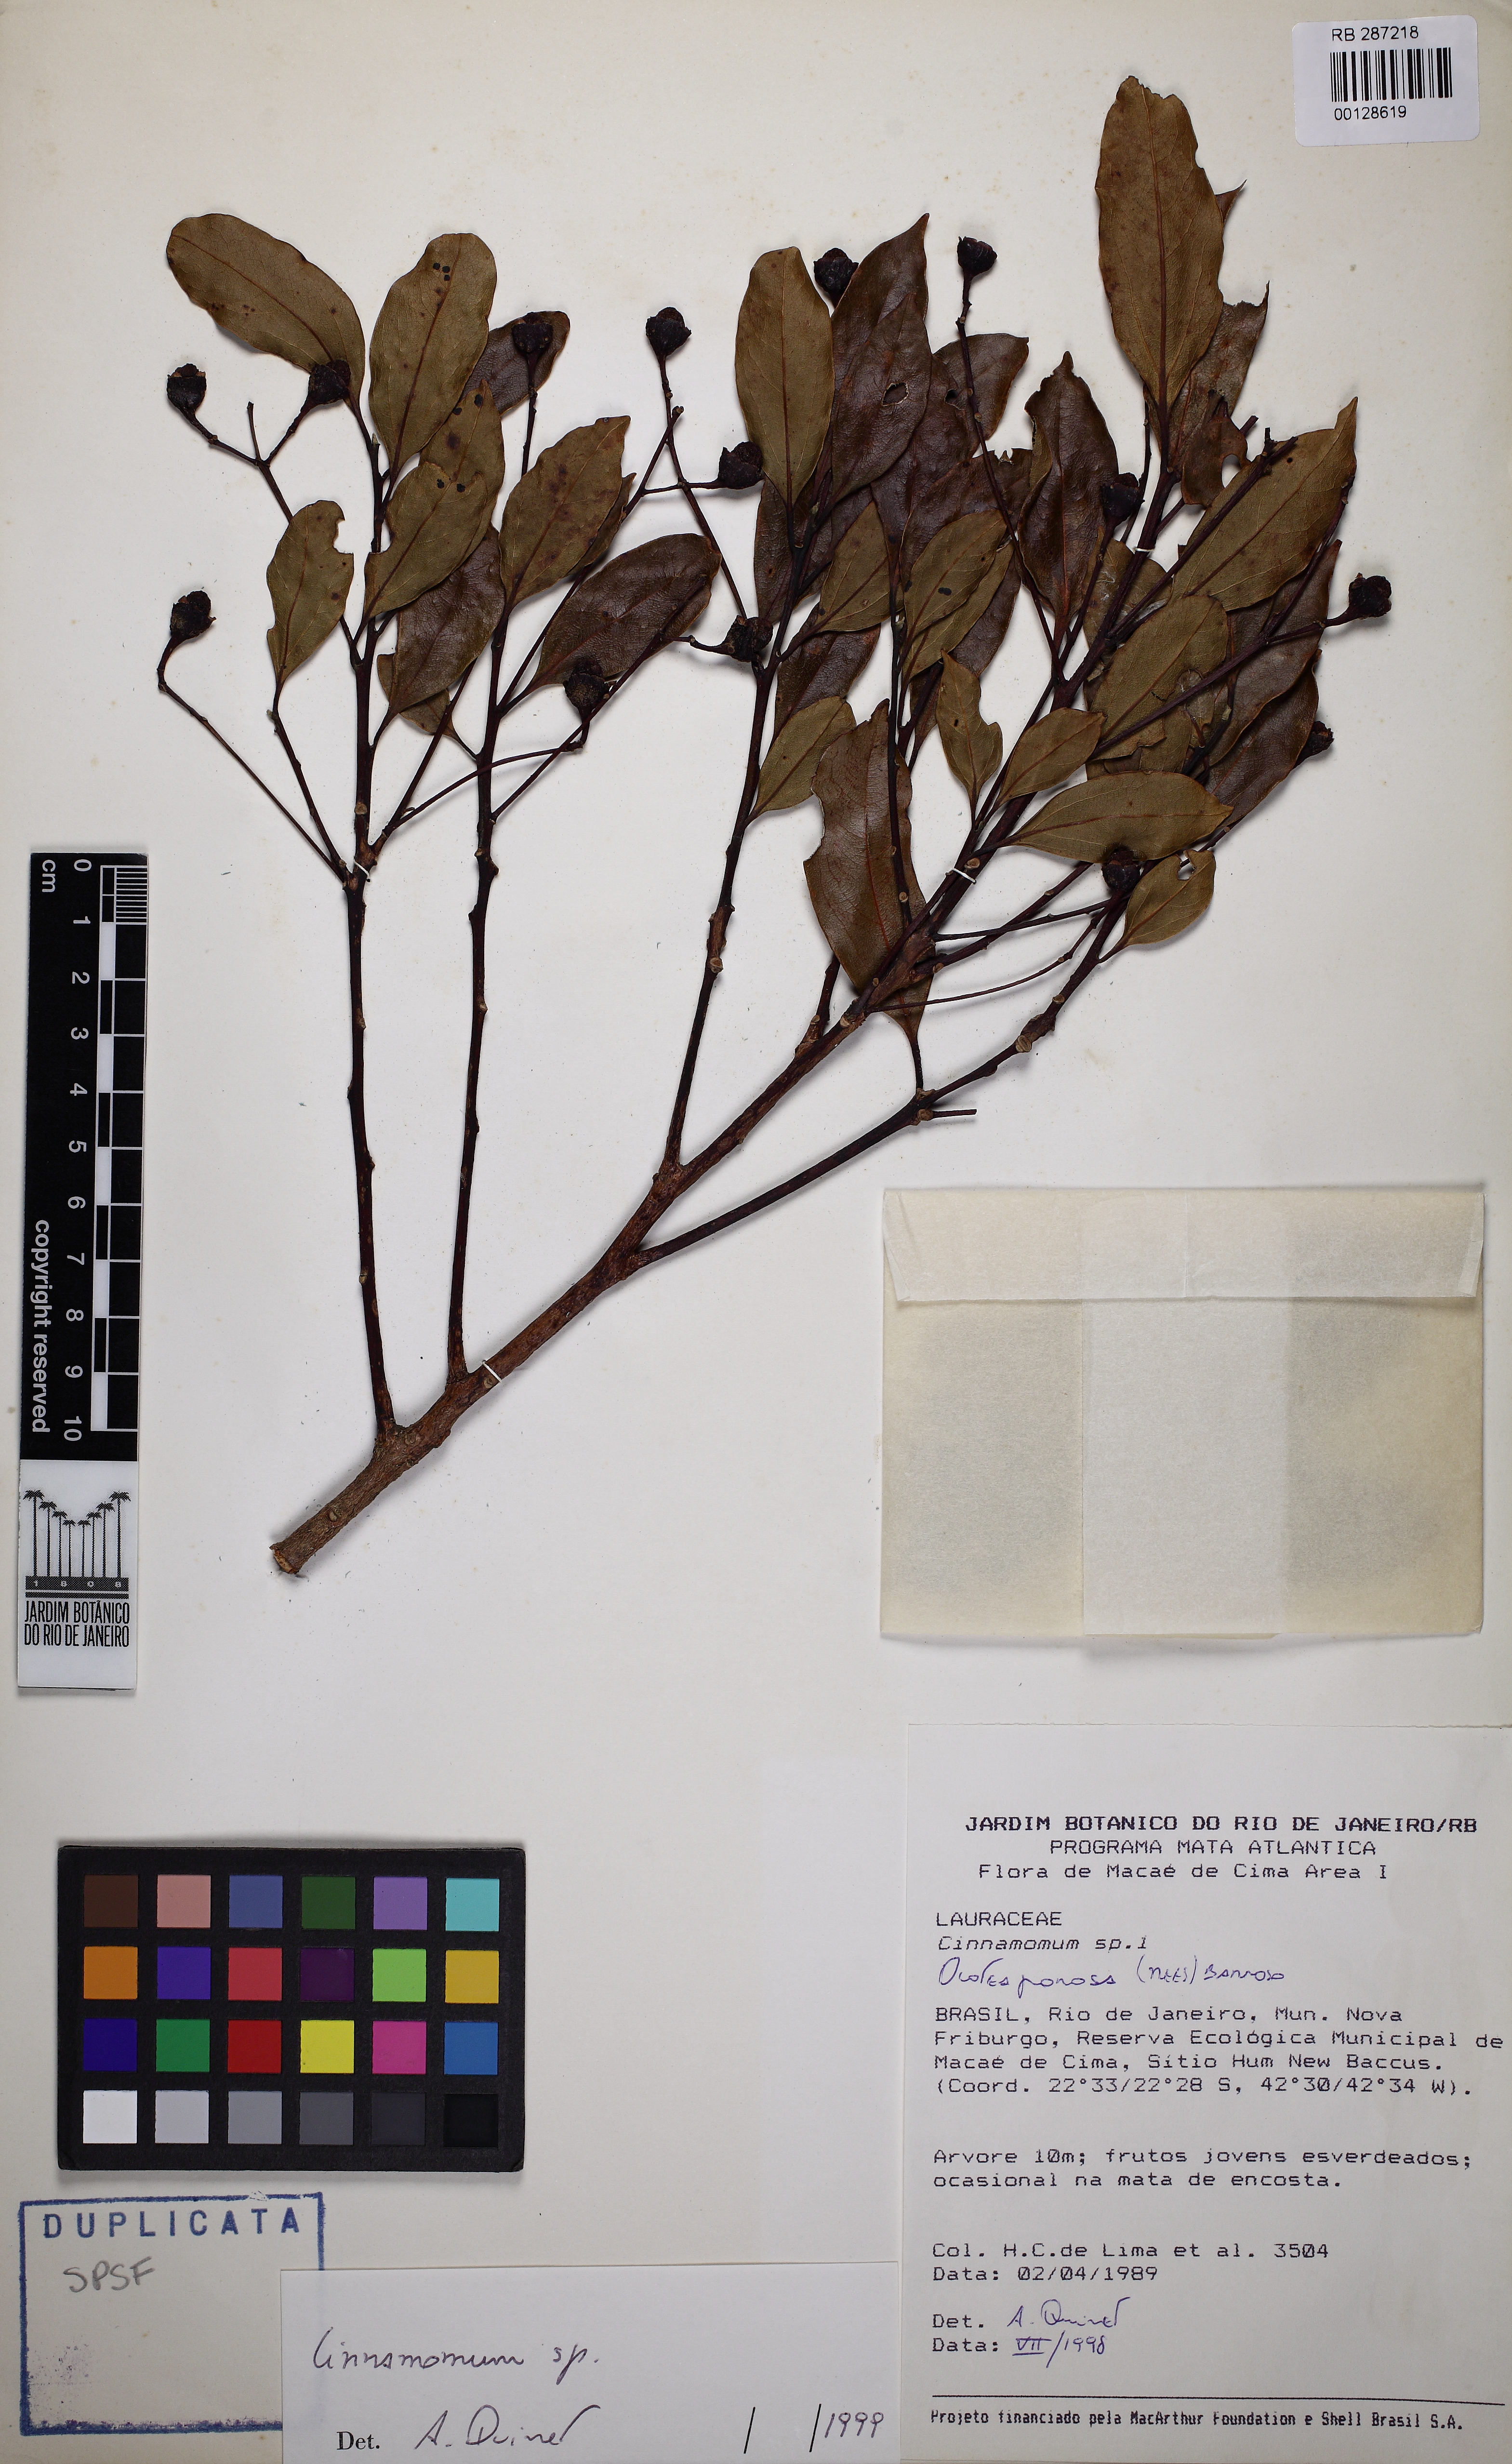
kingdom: Plantae
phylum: Tracheophyta
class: Magnoliopsida
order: Laurales
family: Lauraceae
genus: Cinnamomum
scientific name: Cinnamomum
